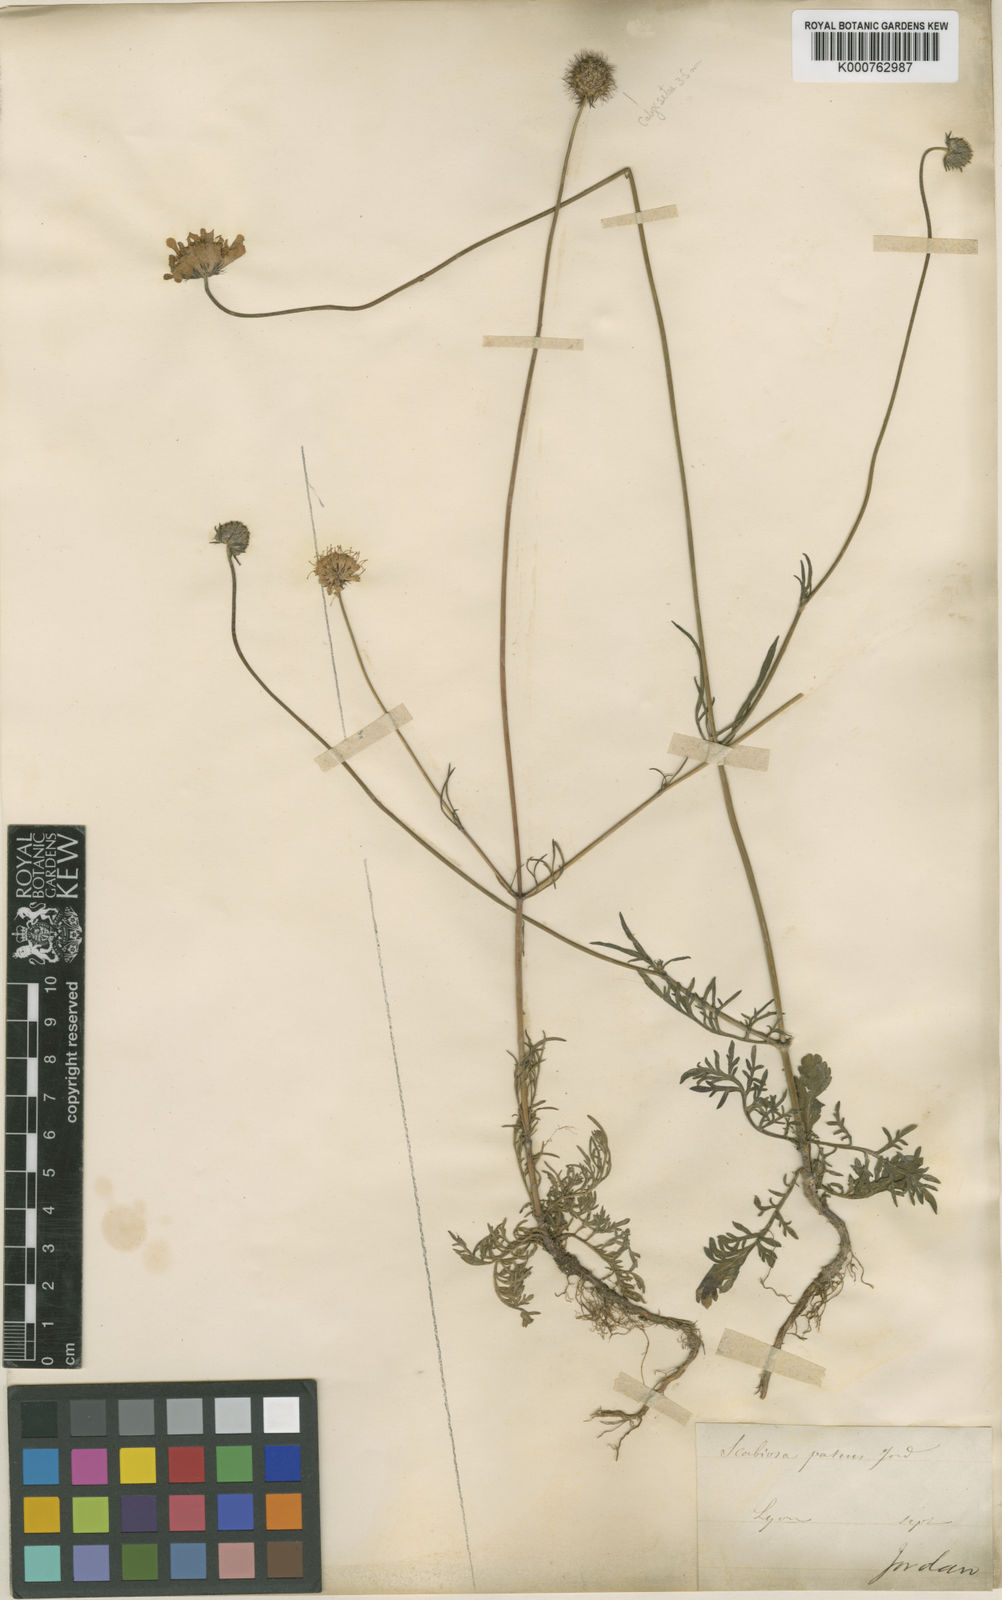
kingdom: Plantae
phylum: Tracheophyta
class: Magnoliopsida
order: Dipsacales
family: Caprifoliaceae
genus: Scabiosa
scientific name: Scabiosa vestina
